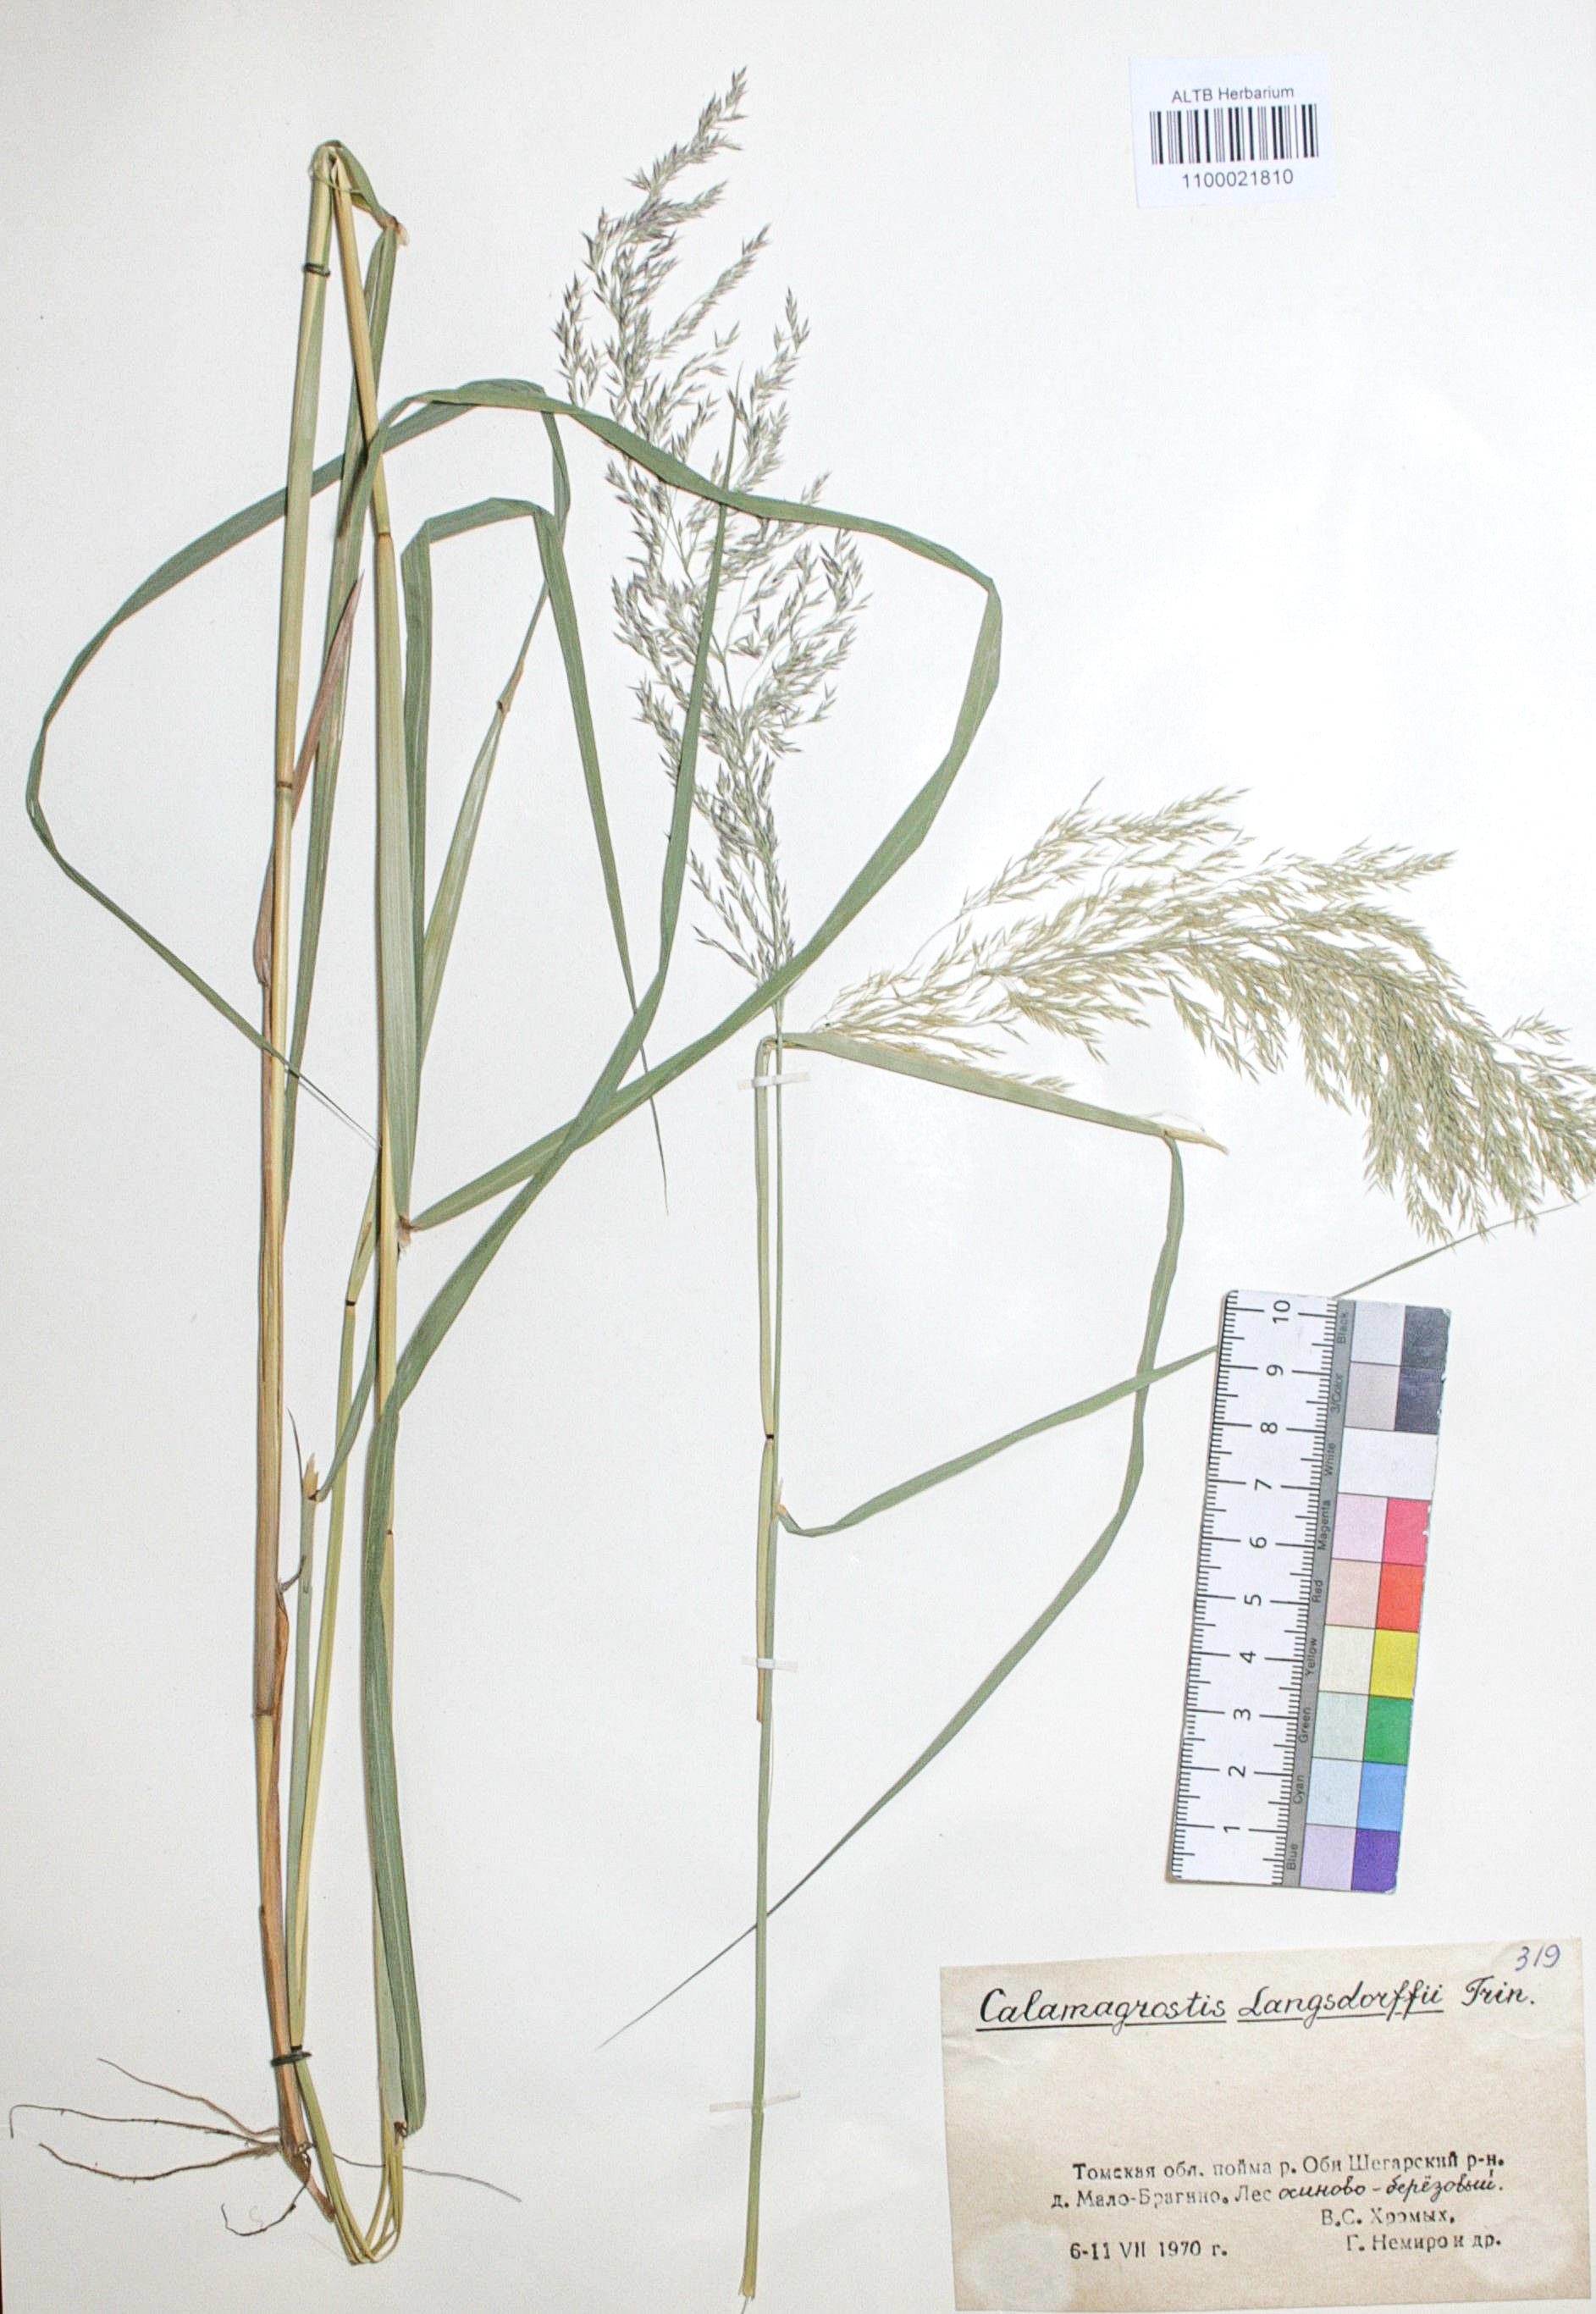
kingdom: Plantae
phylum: Tracheophyta
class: Liliopsida
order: Poales
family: Poaceae
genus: Calamagrostis
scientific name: Calamagrostis purpurea
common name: Scandinavian small-reed
